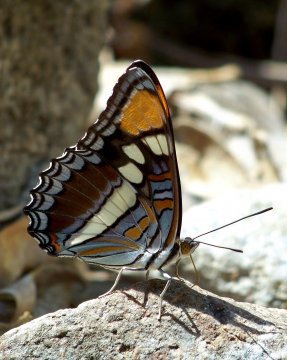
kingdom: Animalia
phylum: Arthropoda
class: Insecta
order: Lepidoptera
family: Nymphalidae
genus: Limenitis
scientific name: Limenitis bredowii
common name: Arizona Sister
